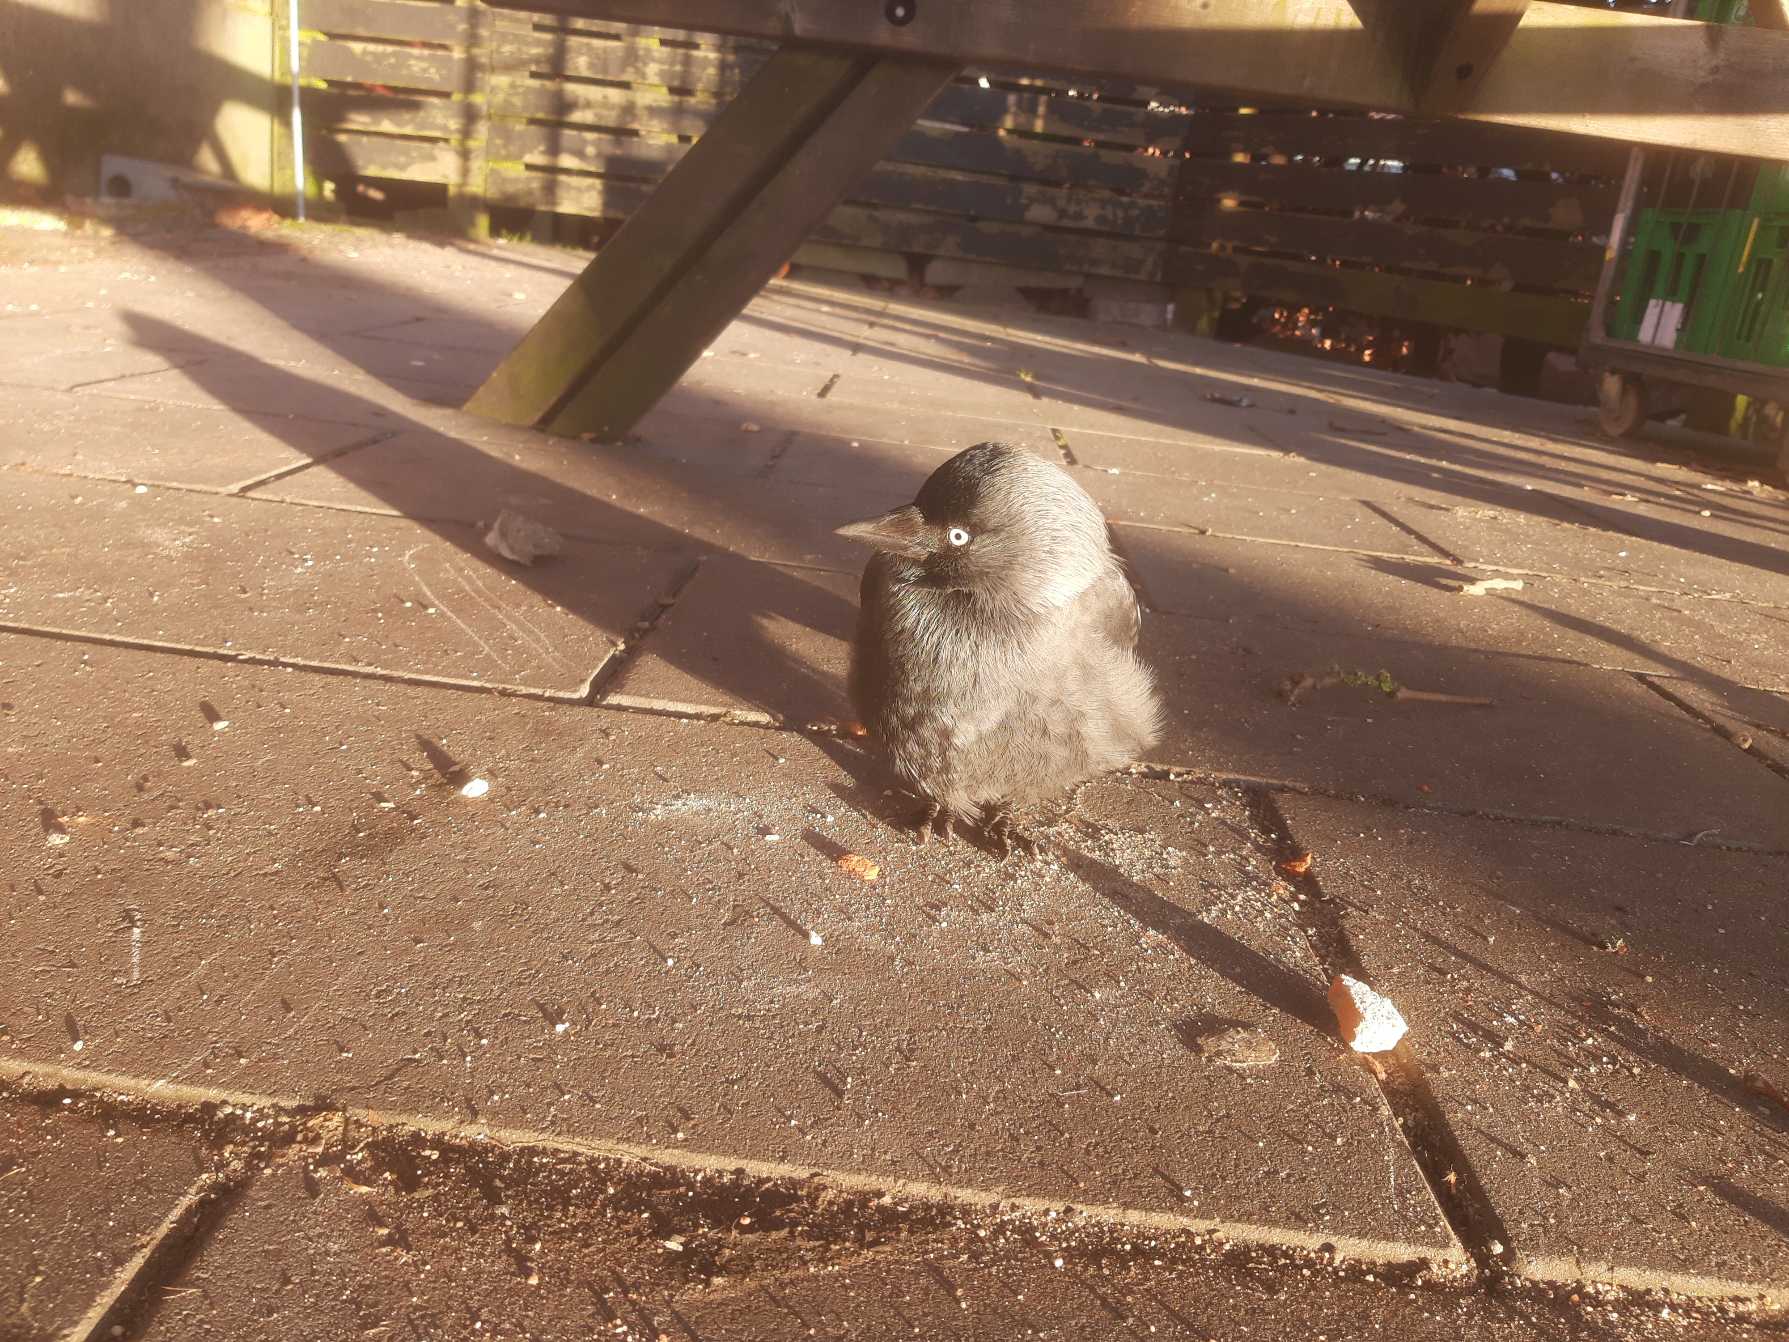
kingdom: Animalia
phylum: Chordata
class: Aves
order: Passeriformes
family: Corvidae
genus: Coloeus
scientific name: Coloeus monedula
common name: Allike
